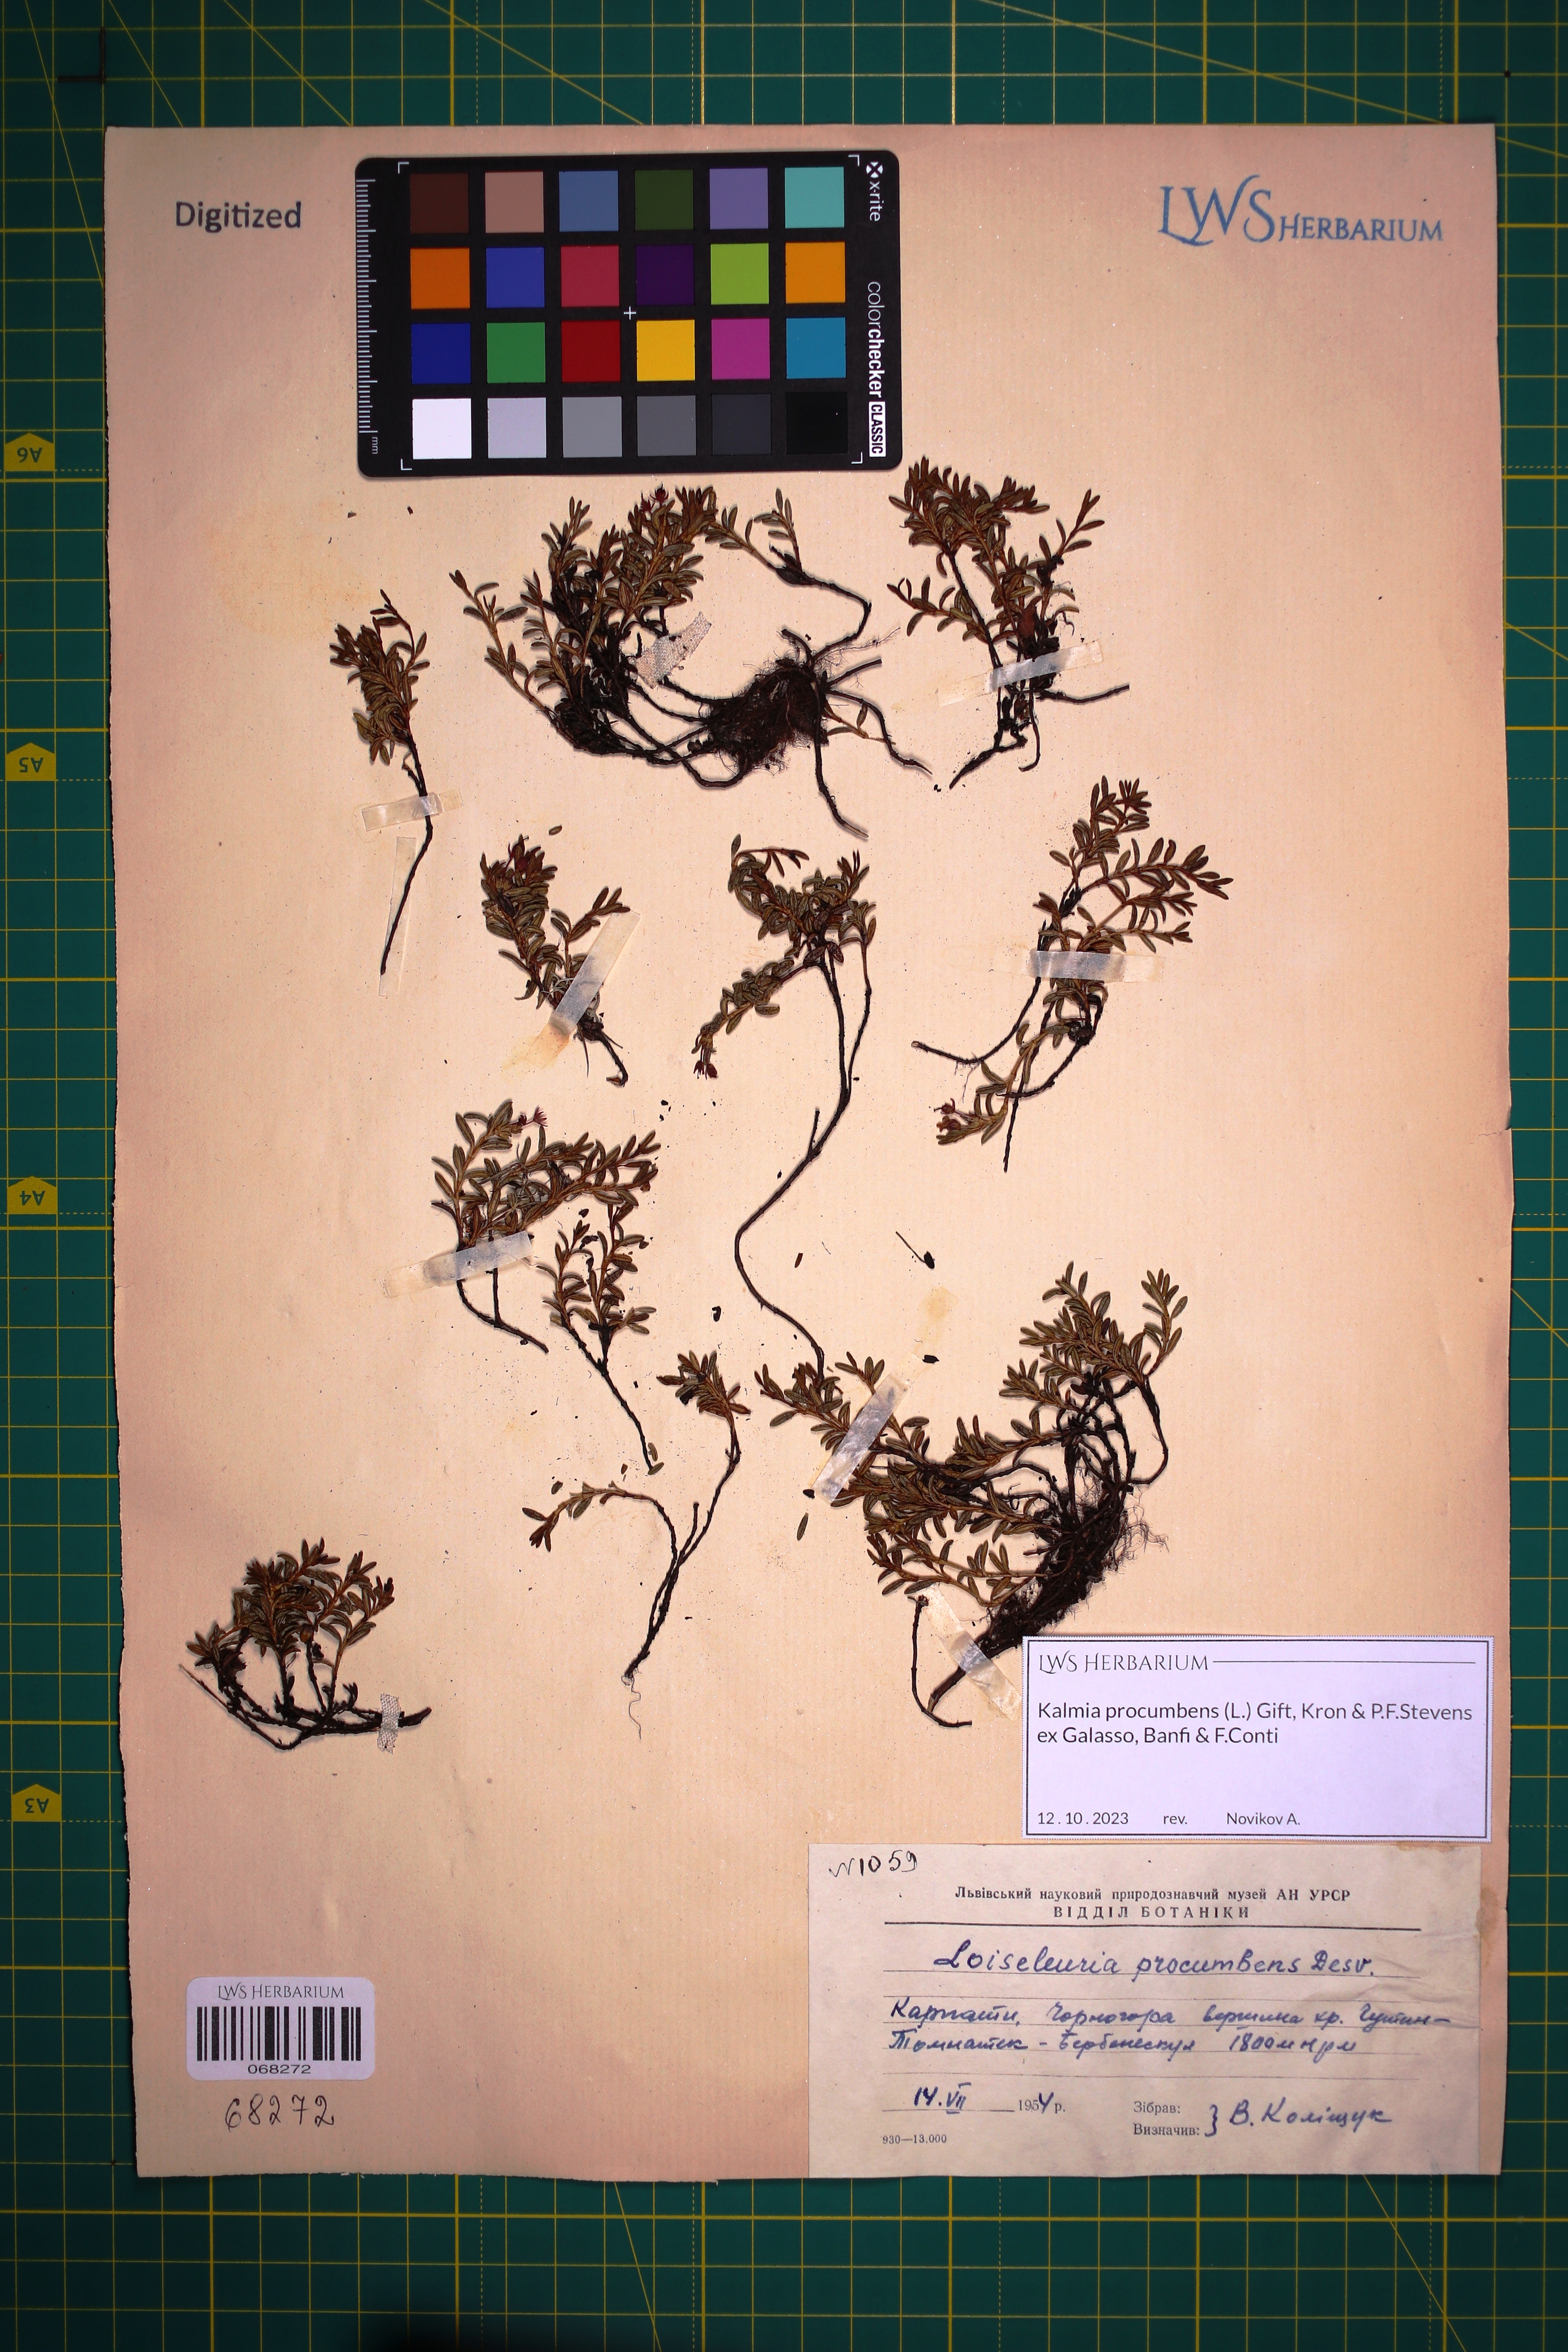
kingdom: Plantae
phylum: Tracheophyta
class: Magnoliopsida
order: Ericales
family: Ericaceae
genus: Kalmia
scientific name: Kalmia procumbens
